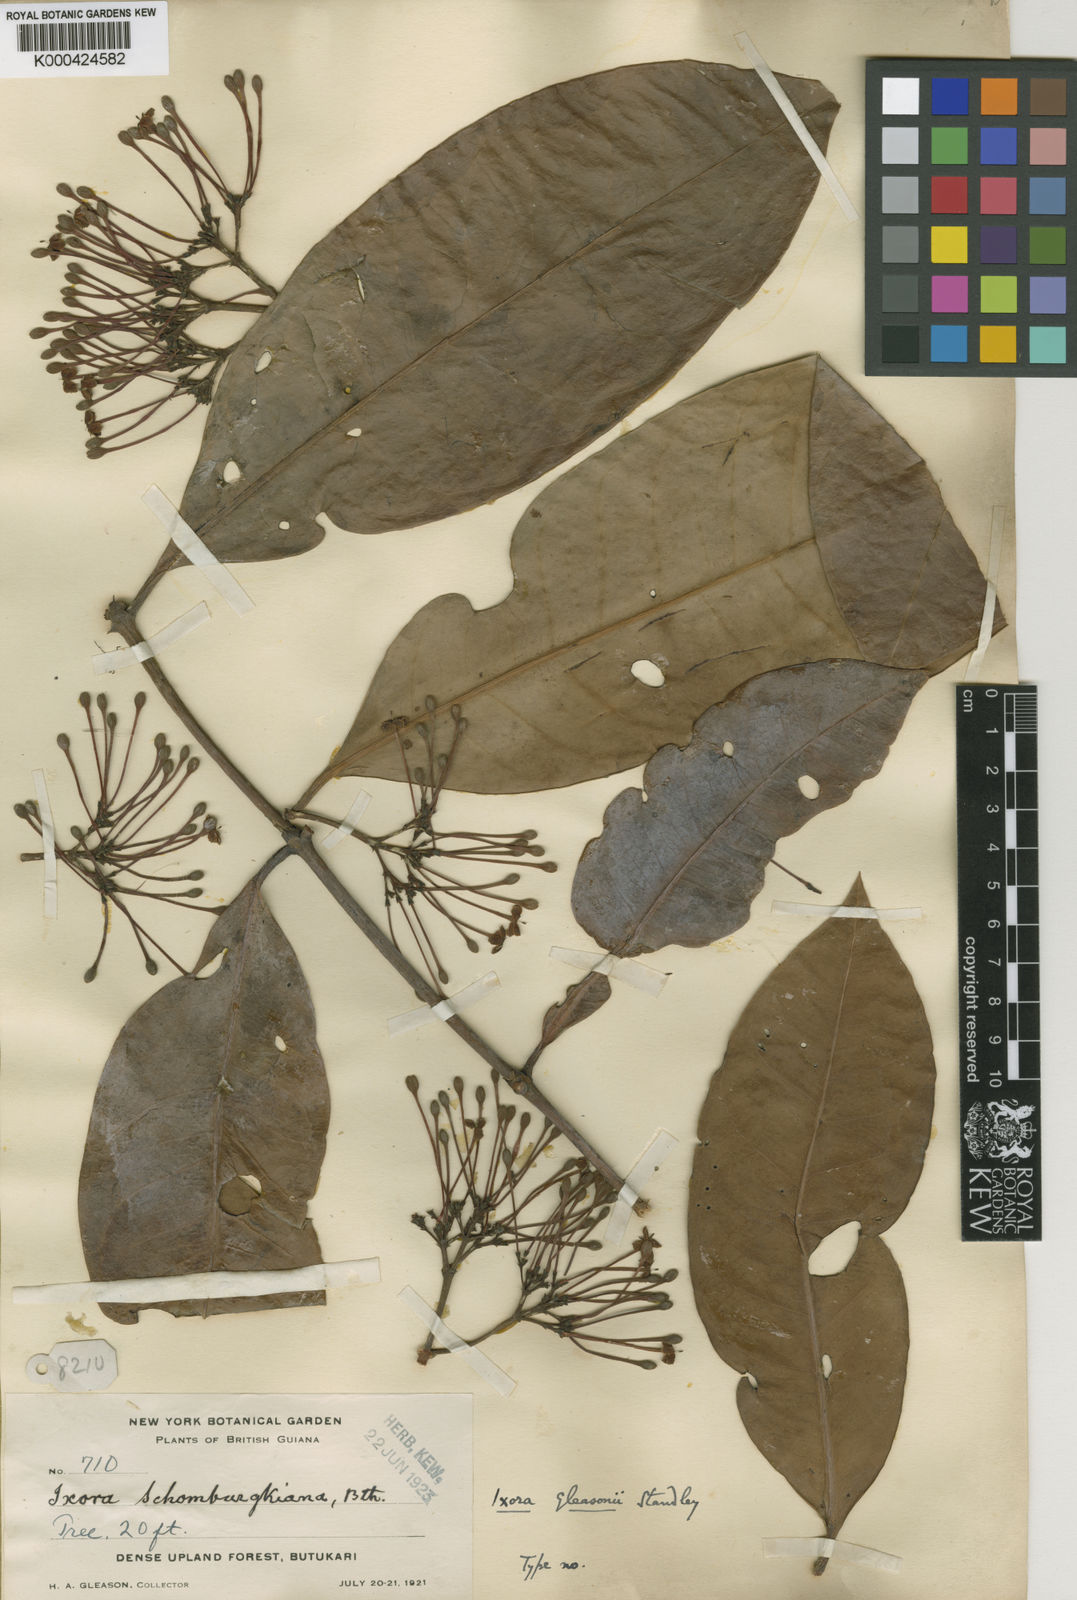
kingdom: Plantae
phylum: Tracheophyta
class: Magnoliopsida
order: Gentianales
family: Rubiaceae
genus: Ixora
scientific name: Ixora schomburgkiana
